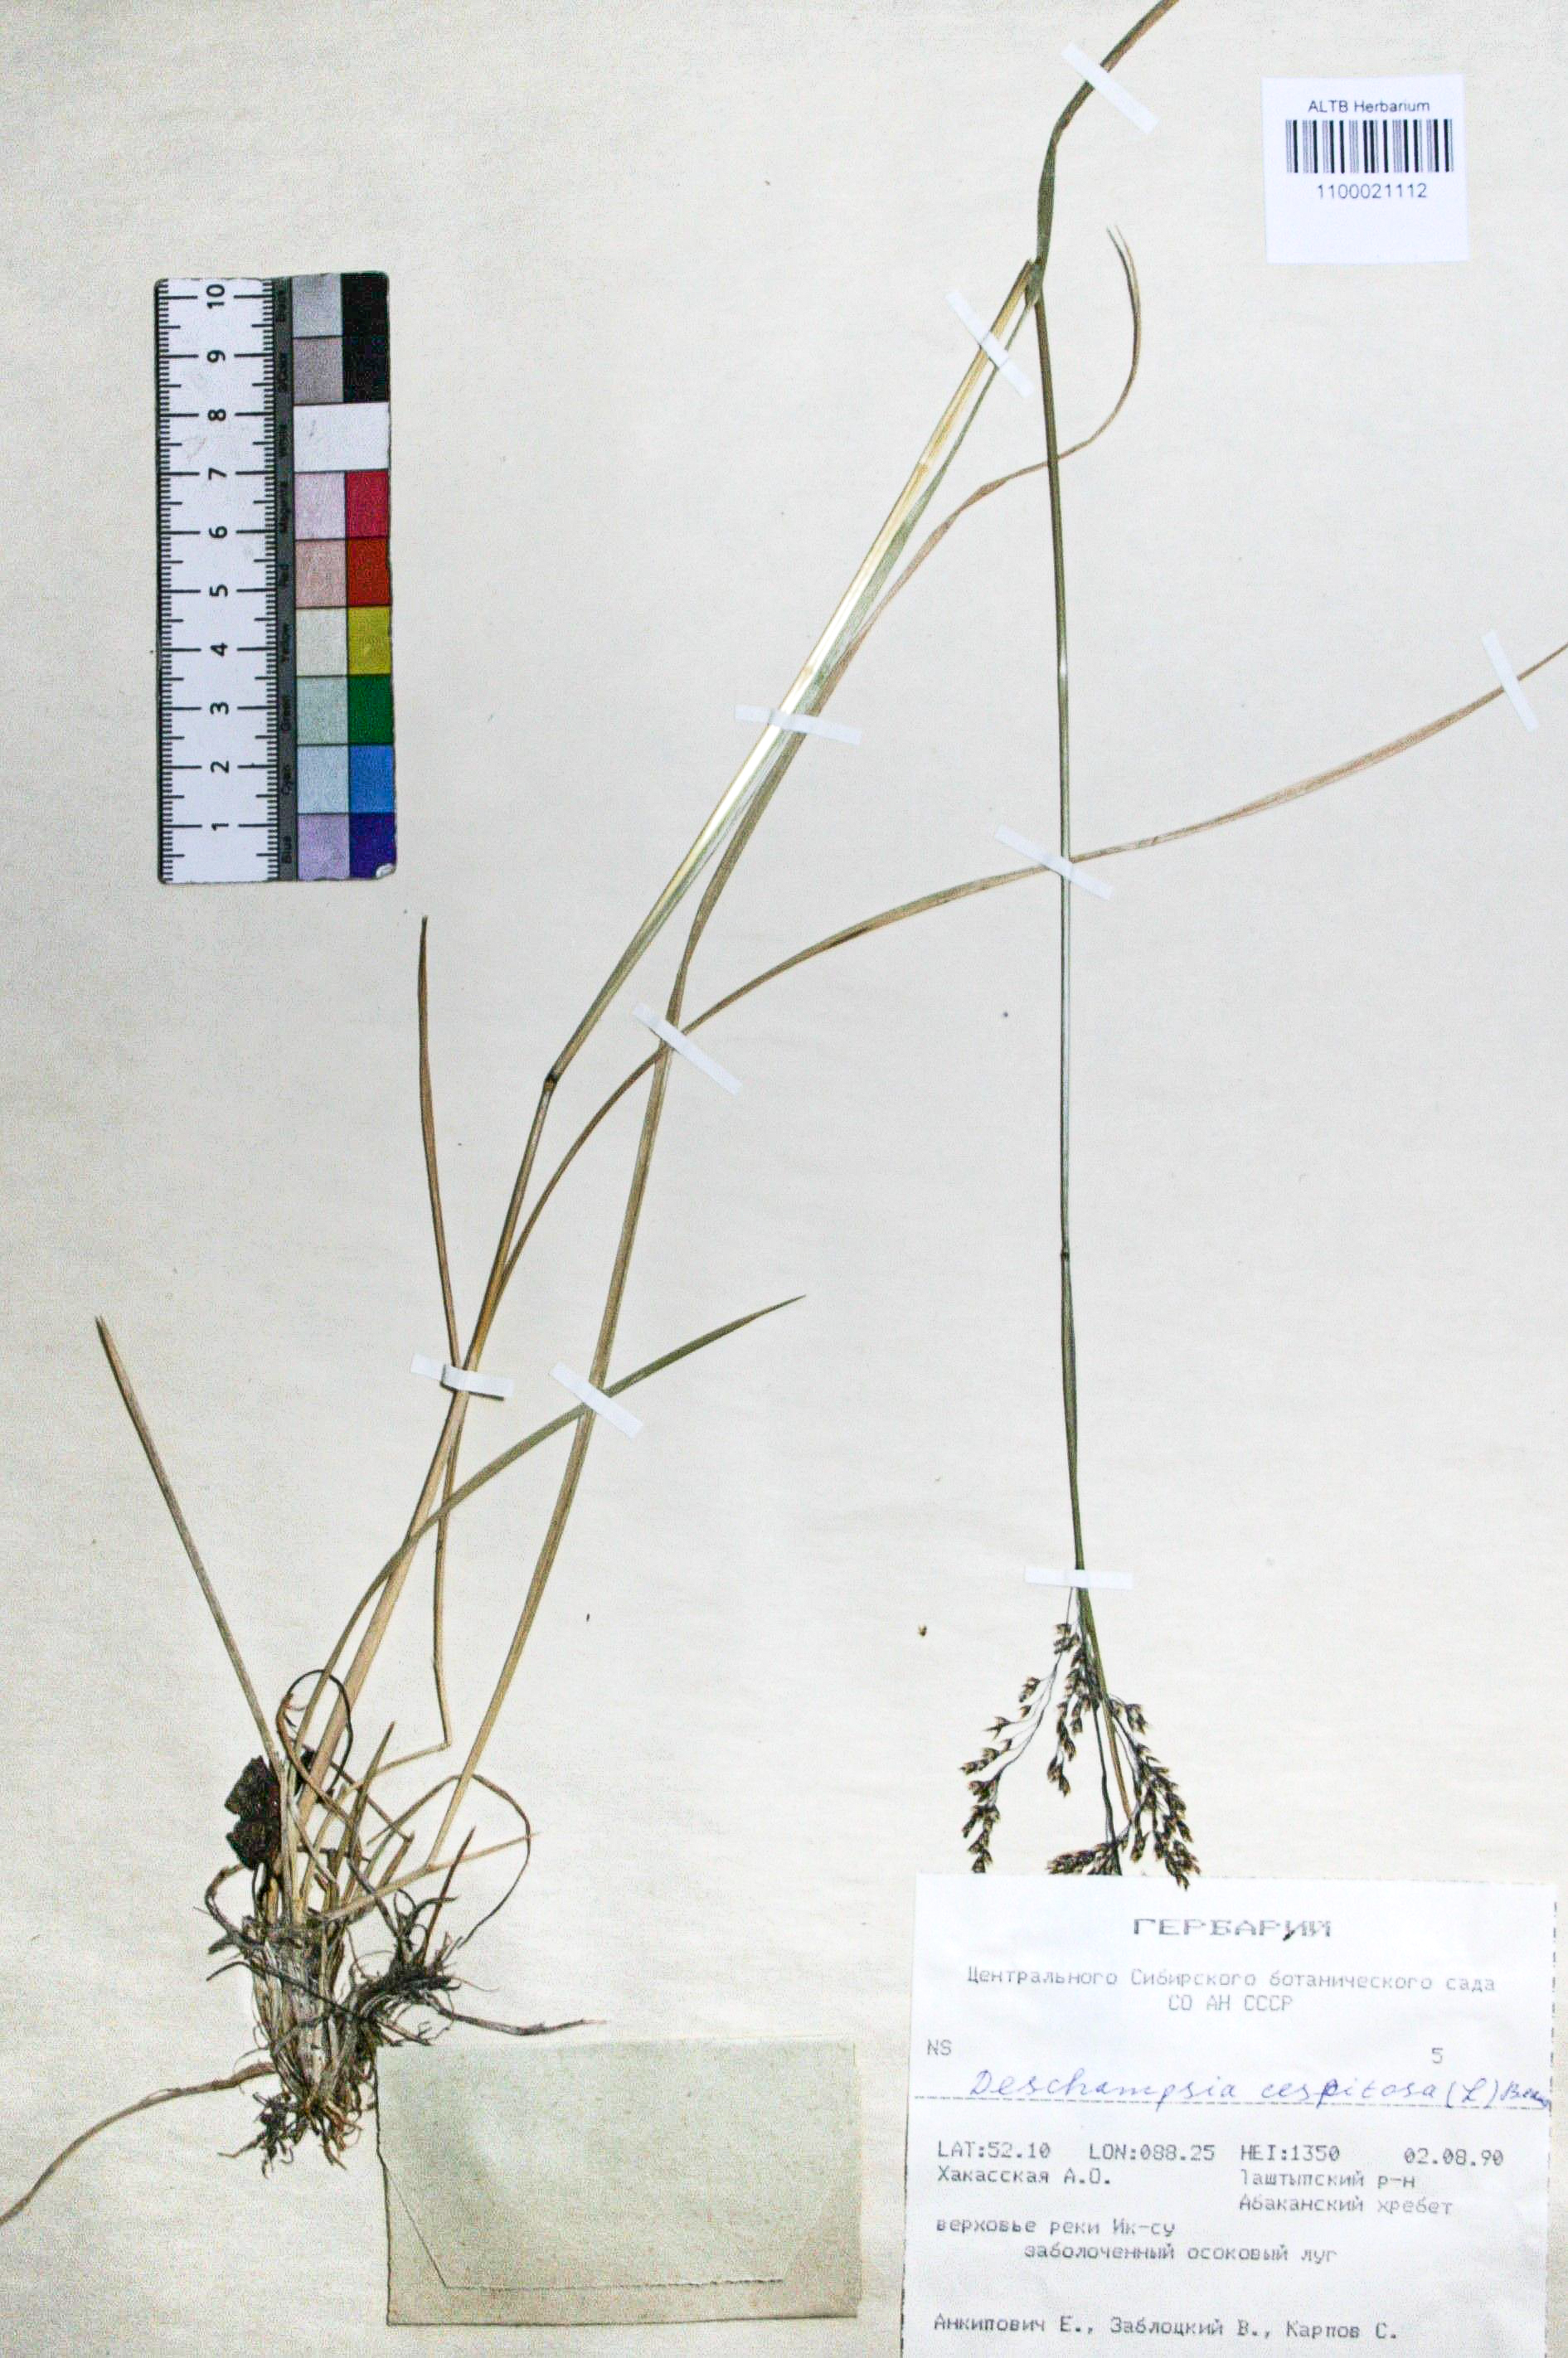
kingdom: Plantae
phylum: Tracheophyta
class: Liliopsida
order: Poales
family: Poaceae
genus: Deschampsia
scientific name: Deschampsia cespitosa
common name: Tufted hair-grass
